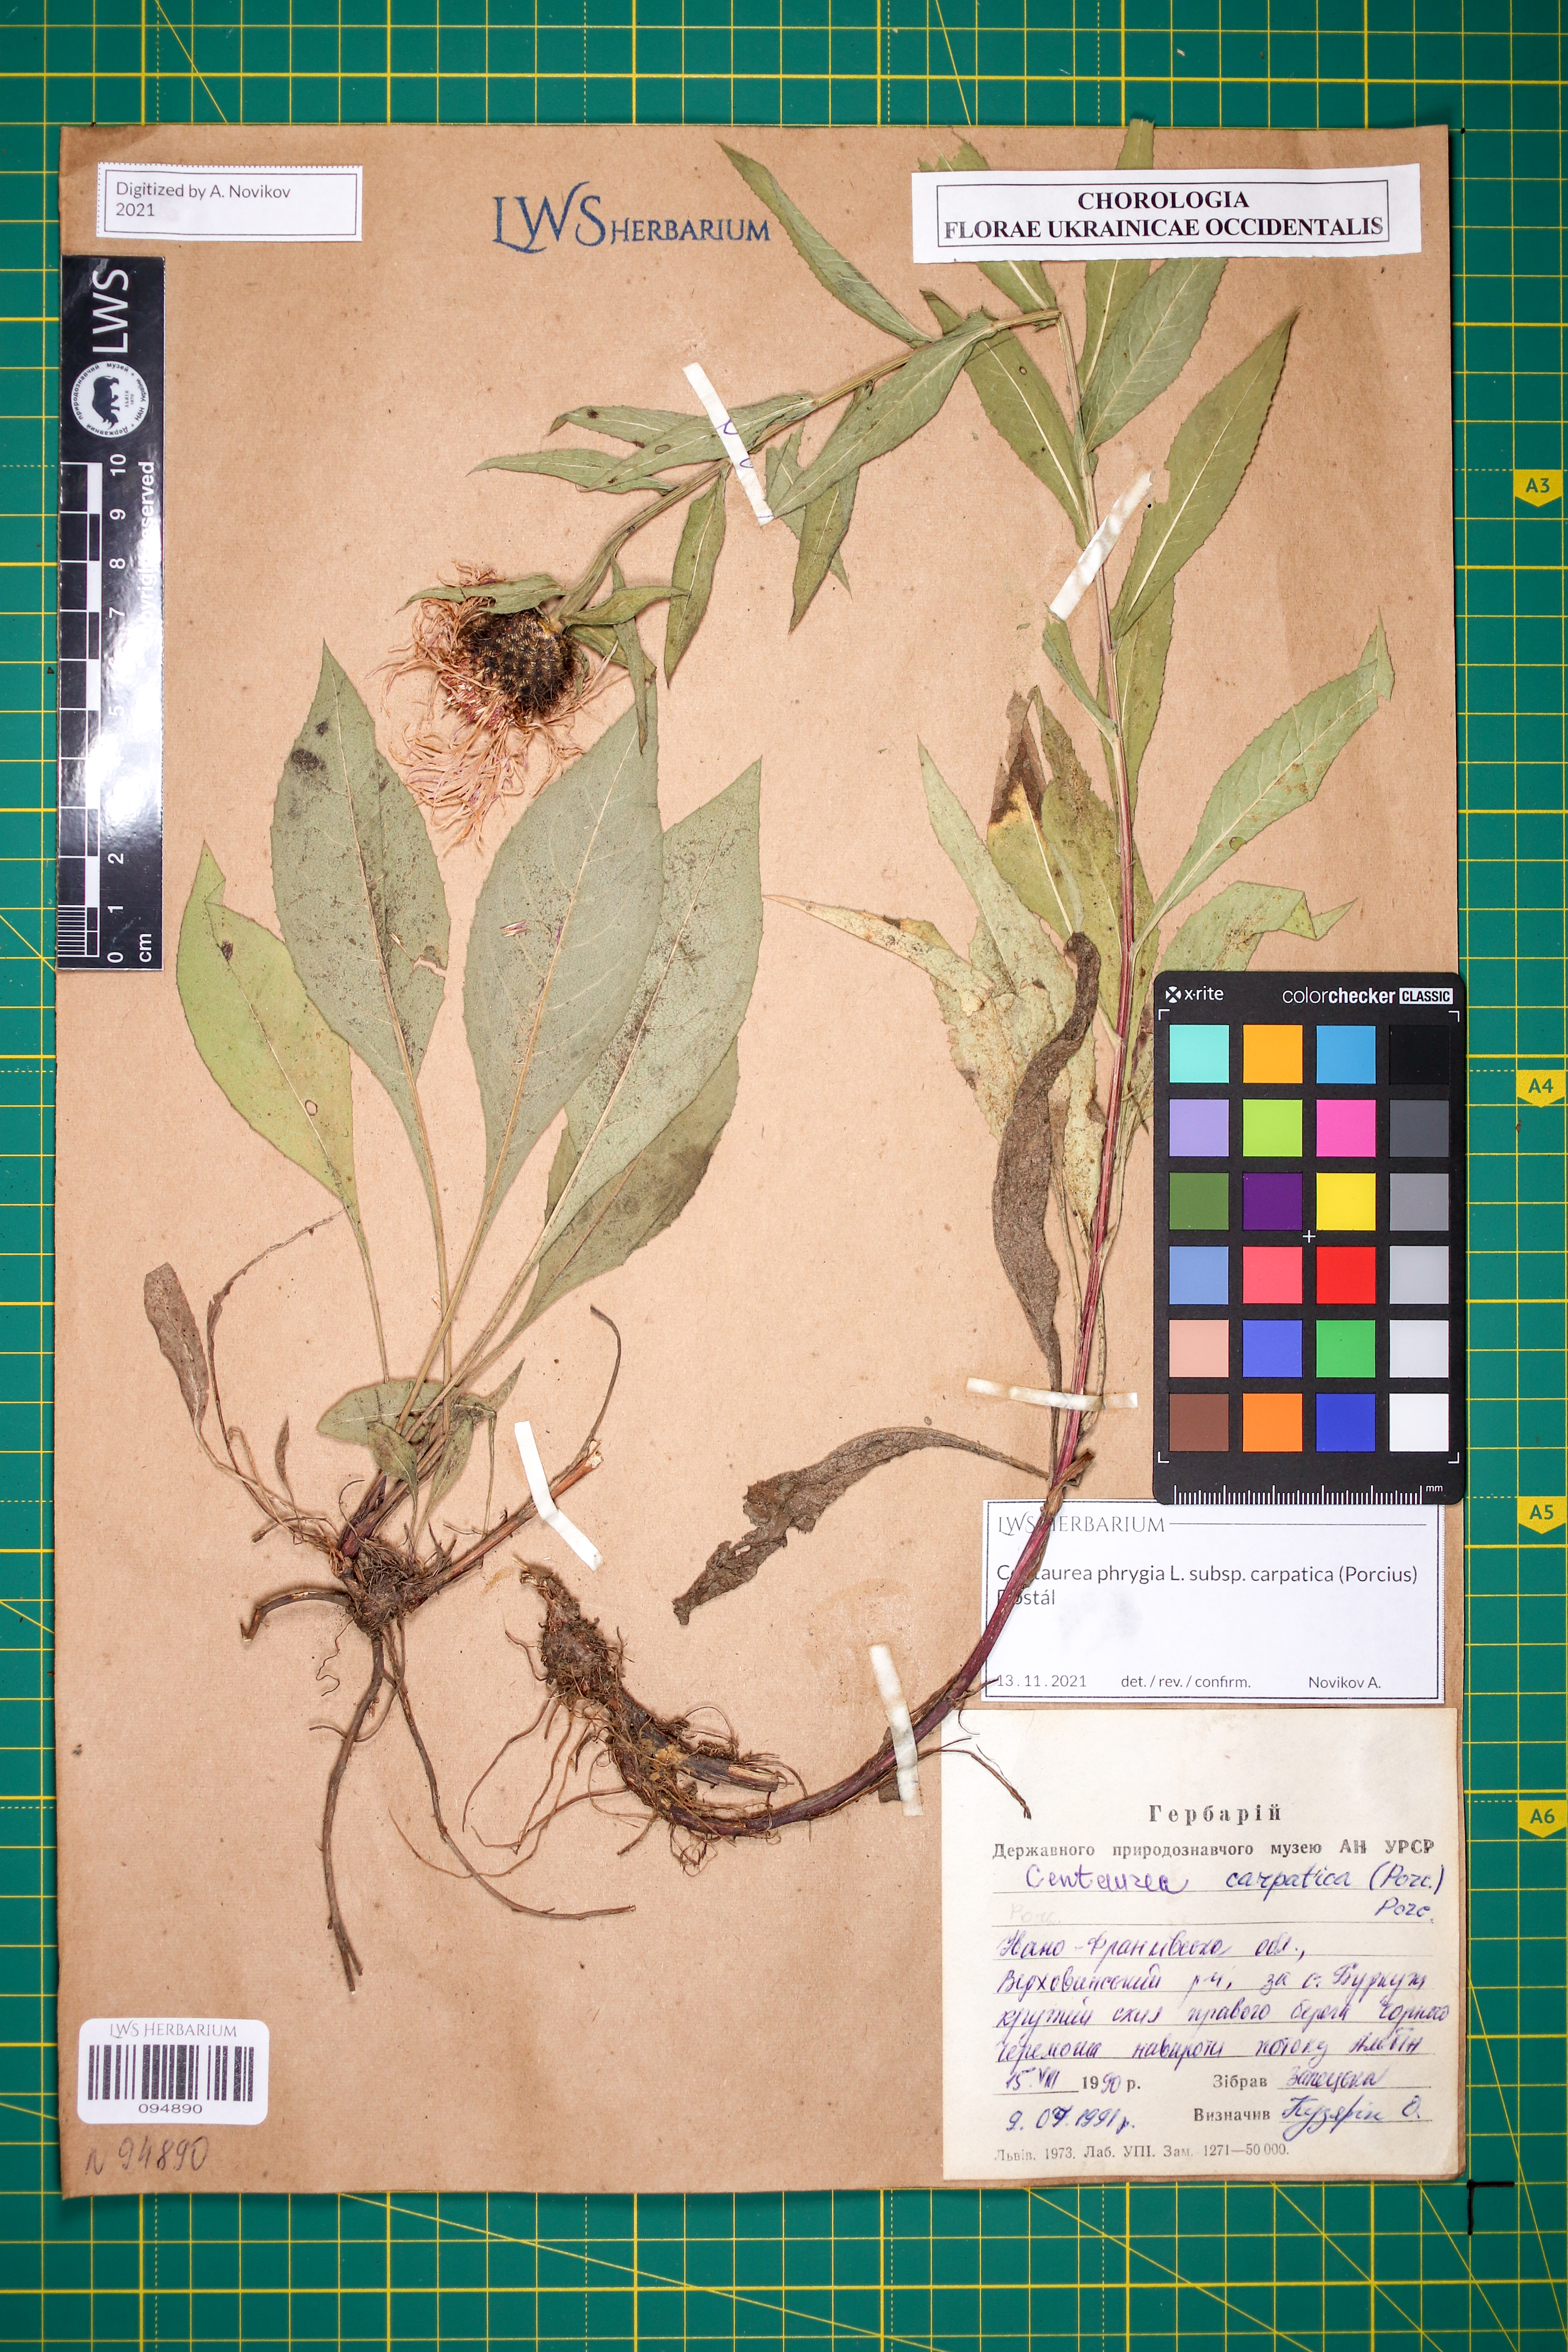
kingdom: Plantae
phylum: Tracheophyta
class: Magnoliopsida
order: Asterales
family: Asteraceae
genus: Centaurea
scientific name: Centaurea phrygia
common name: Wig knapweed
